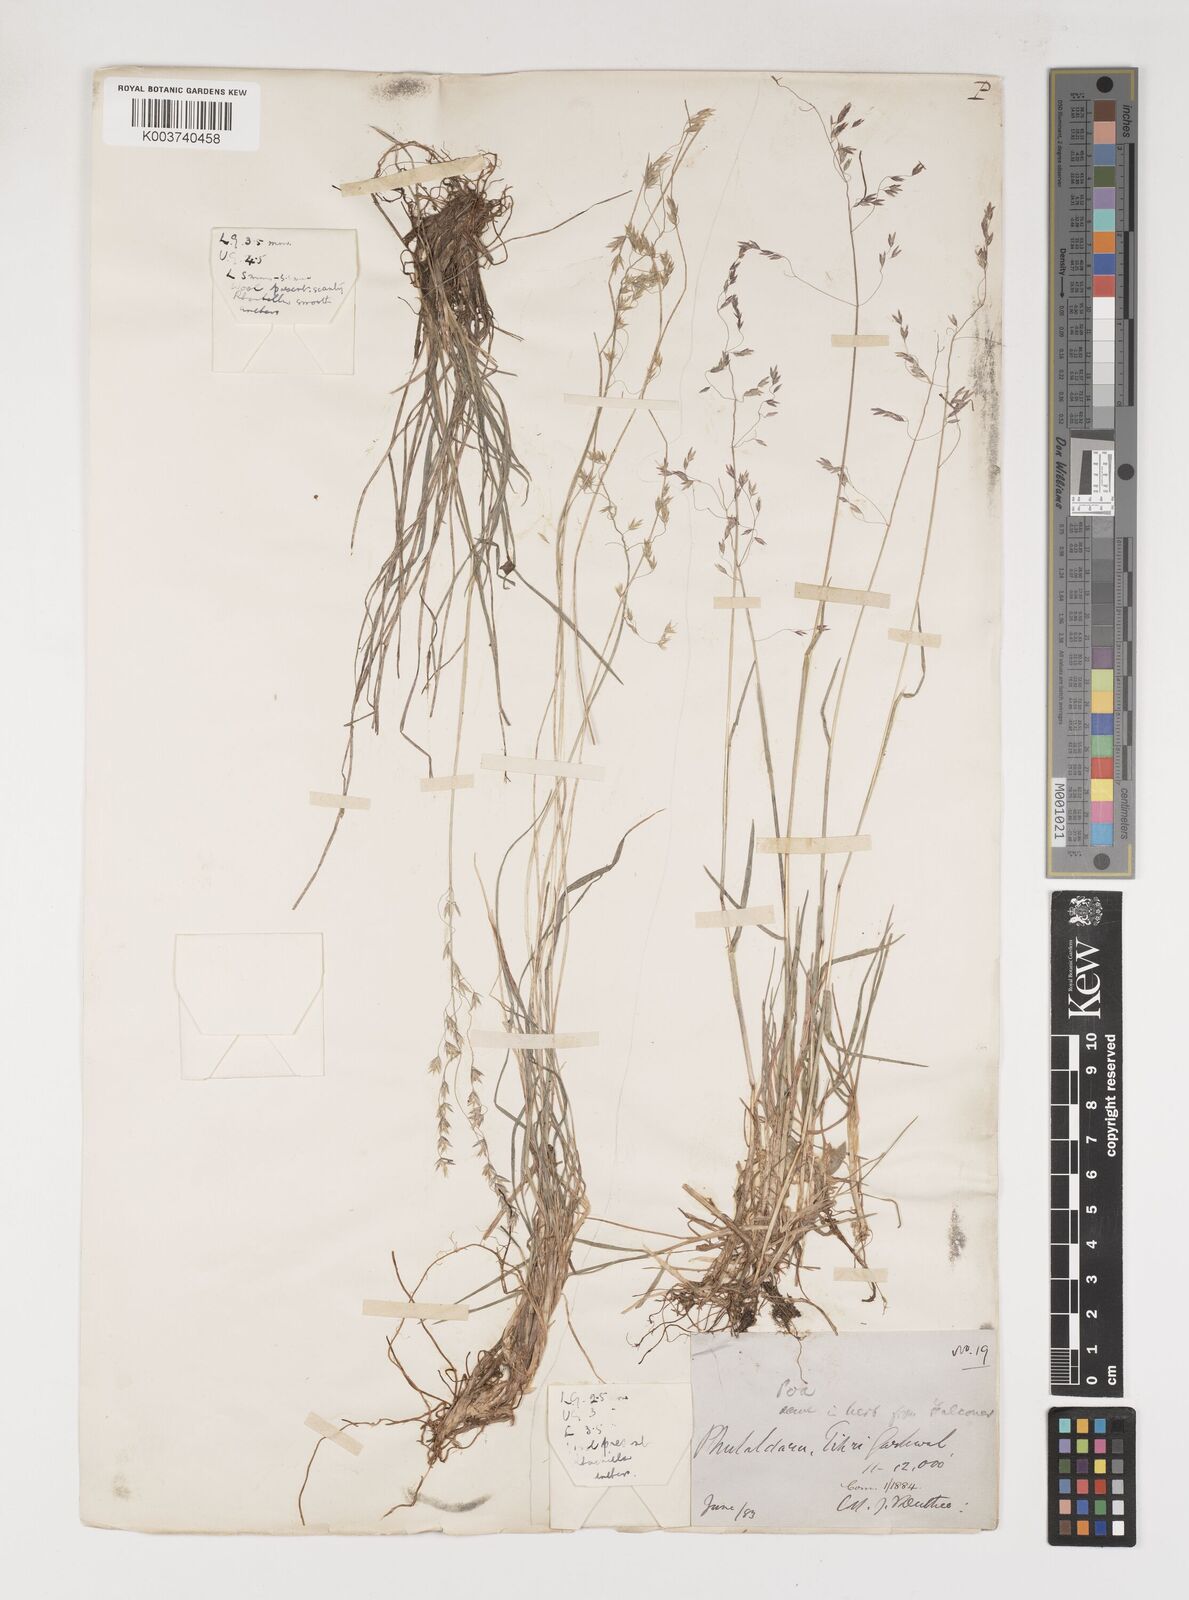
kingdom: Plantae
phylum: Tracheophyta
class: Liliopsida
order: Poales
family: Poaceae
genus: Poa
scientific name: Poa polycolea
